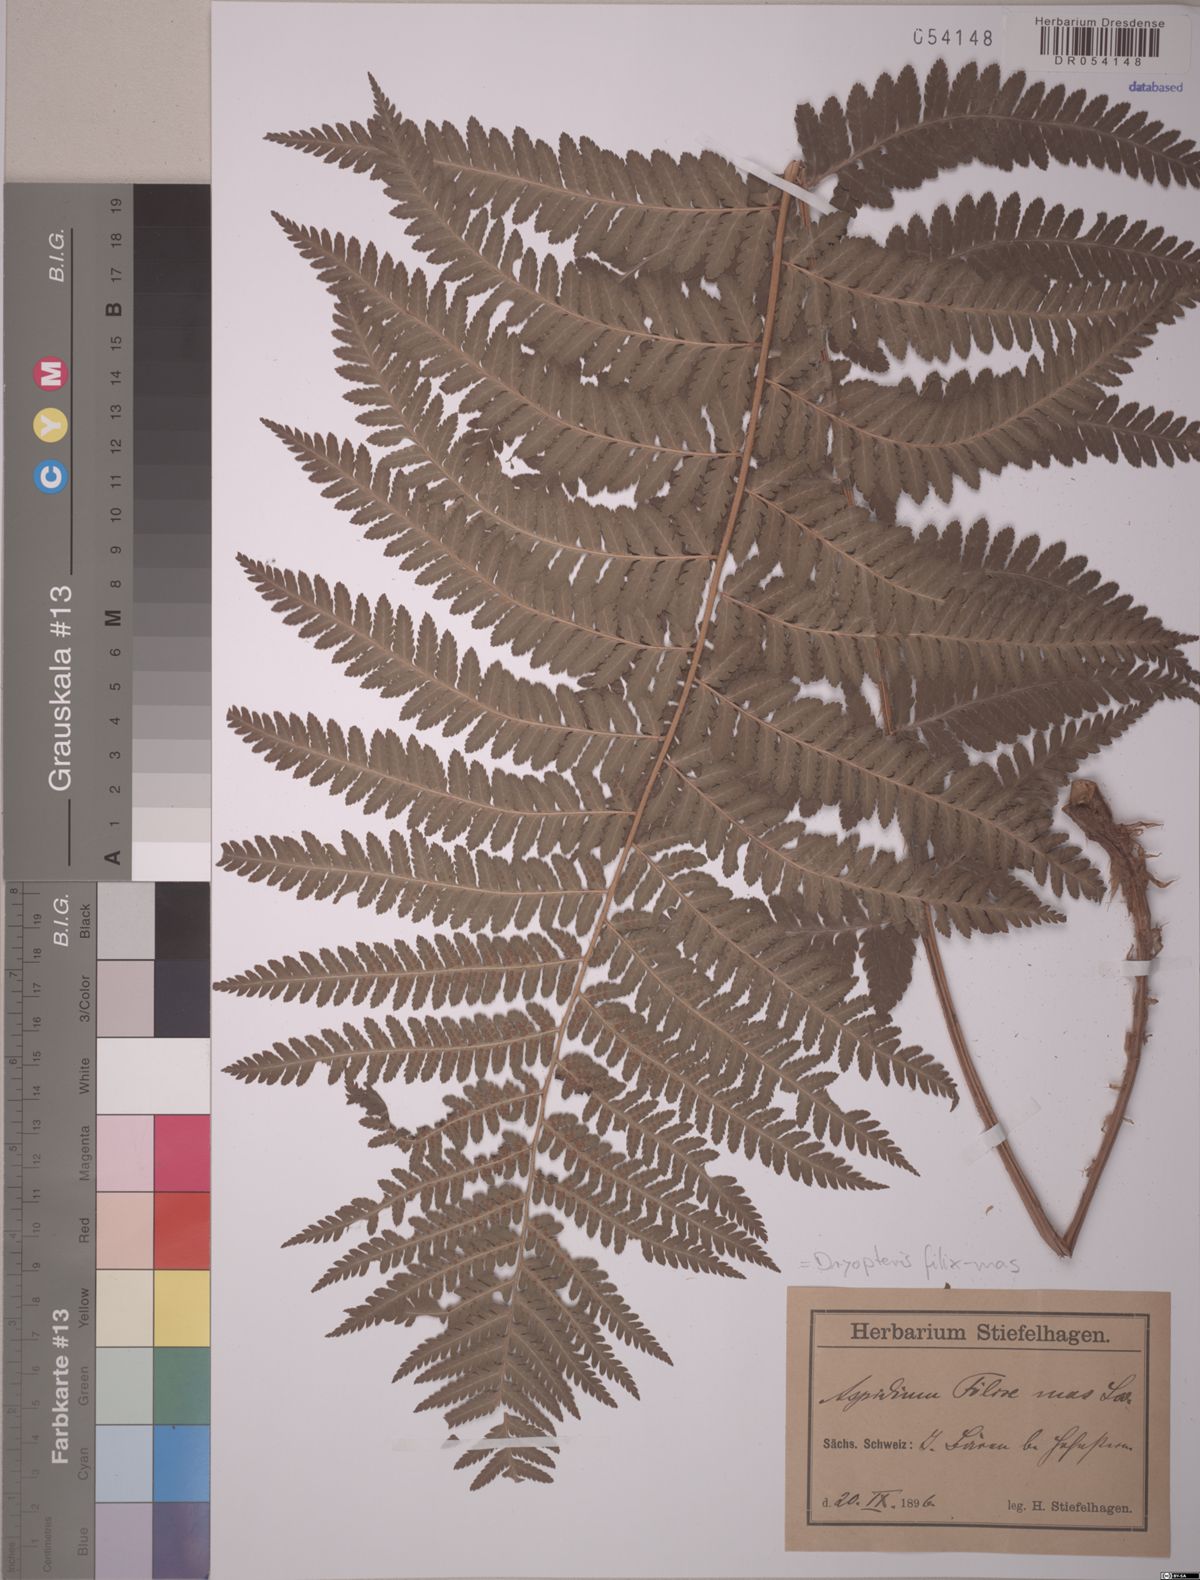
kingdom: Plantae
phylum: Tracheophyta
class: Polypodiopsida
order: Polypodiales
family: Dryopteridaceae
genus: Dryopteris
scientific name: Dryopteris filix-mas
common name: Male fern
